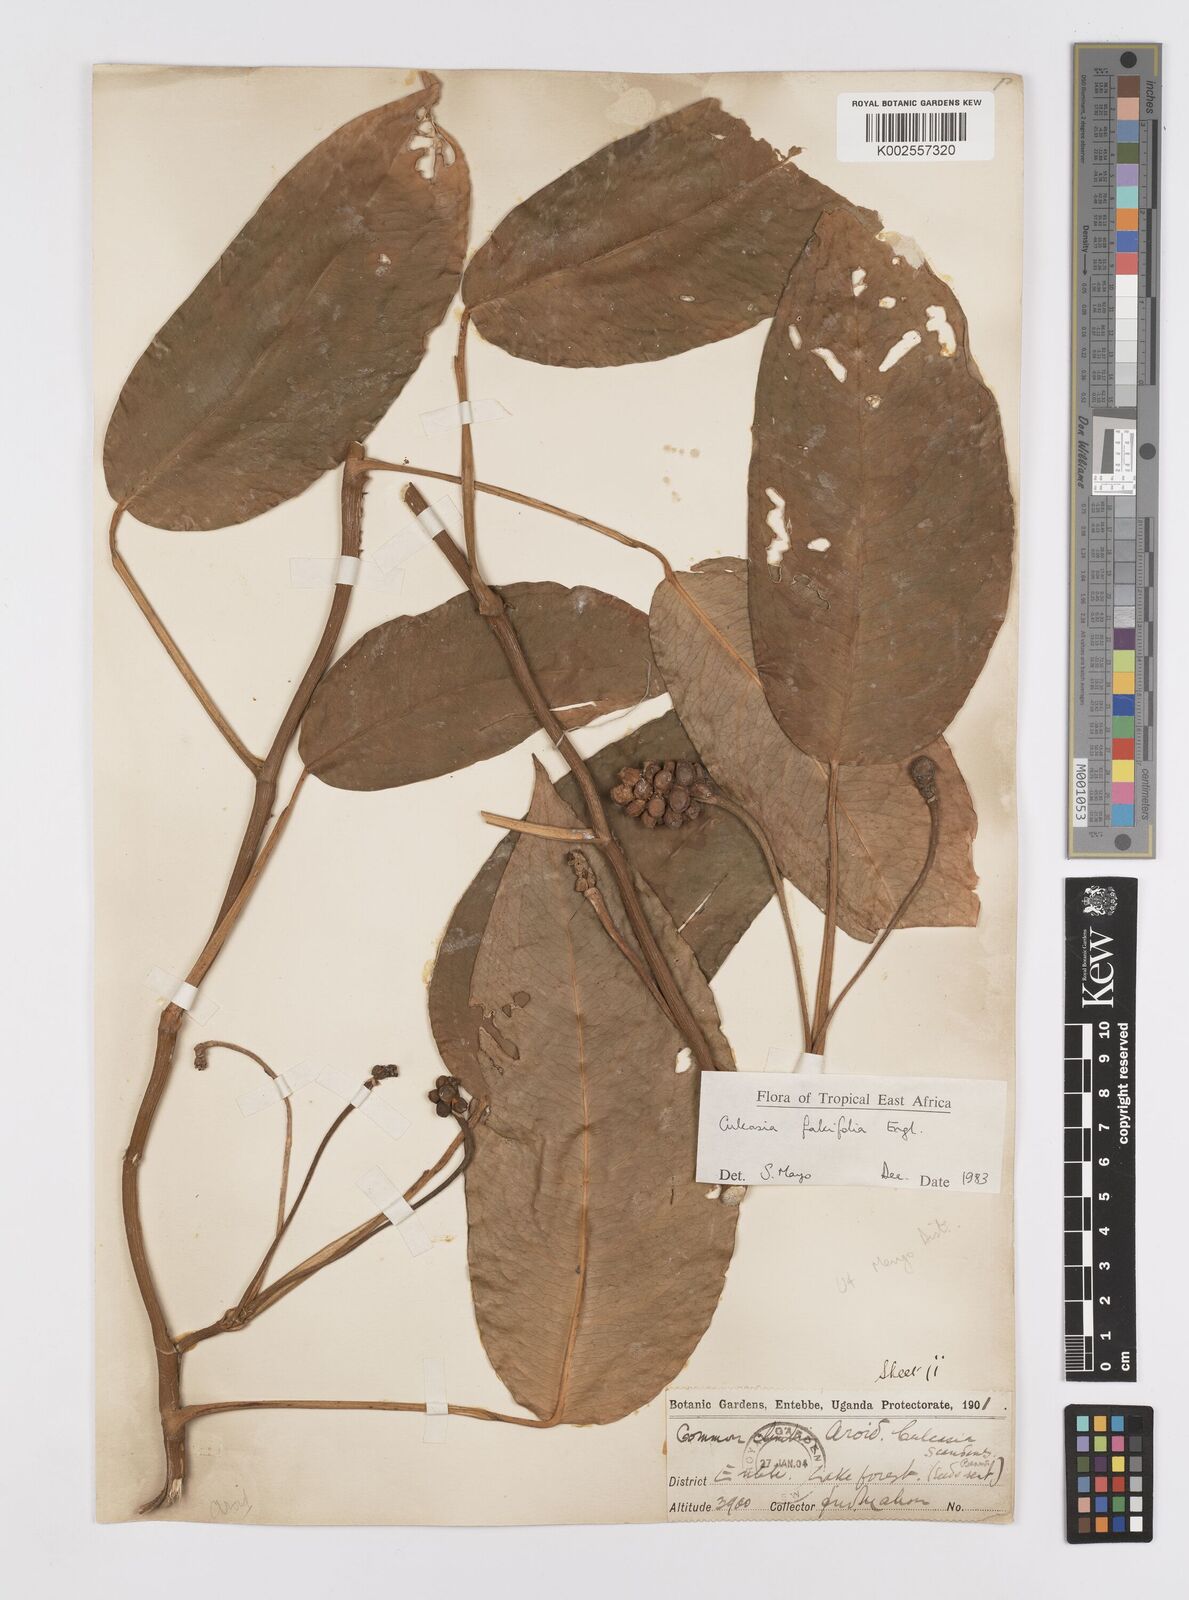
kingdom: Plantae
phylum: Tracheophyta
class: Liliopsida
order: Alismatales
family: Araceae
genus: Culcasia
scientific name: Culcasia falcifolia
